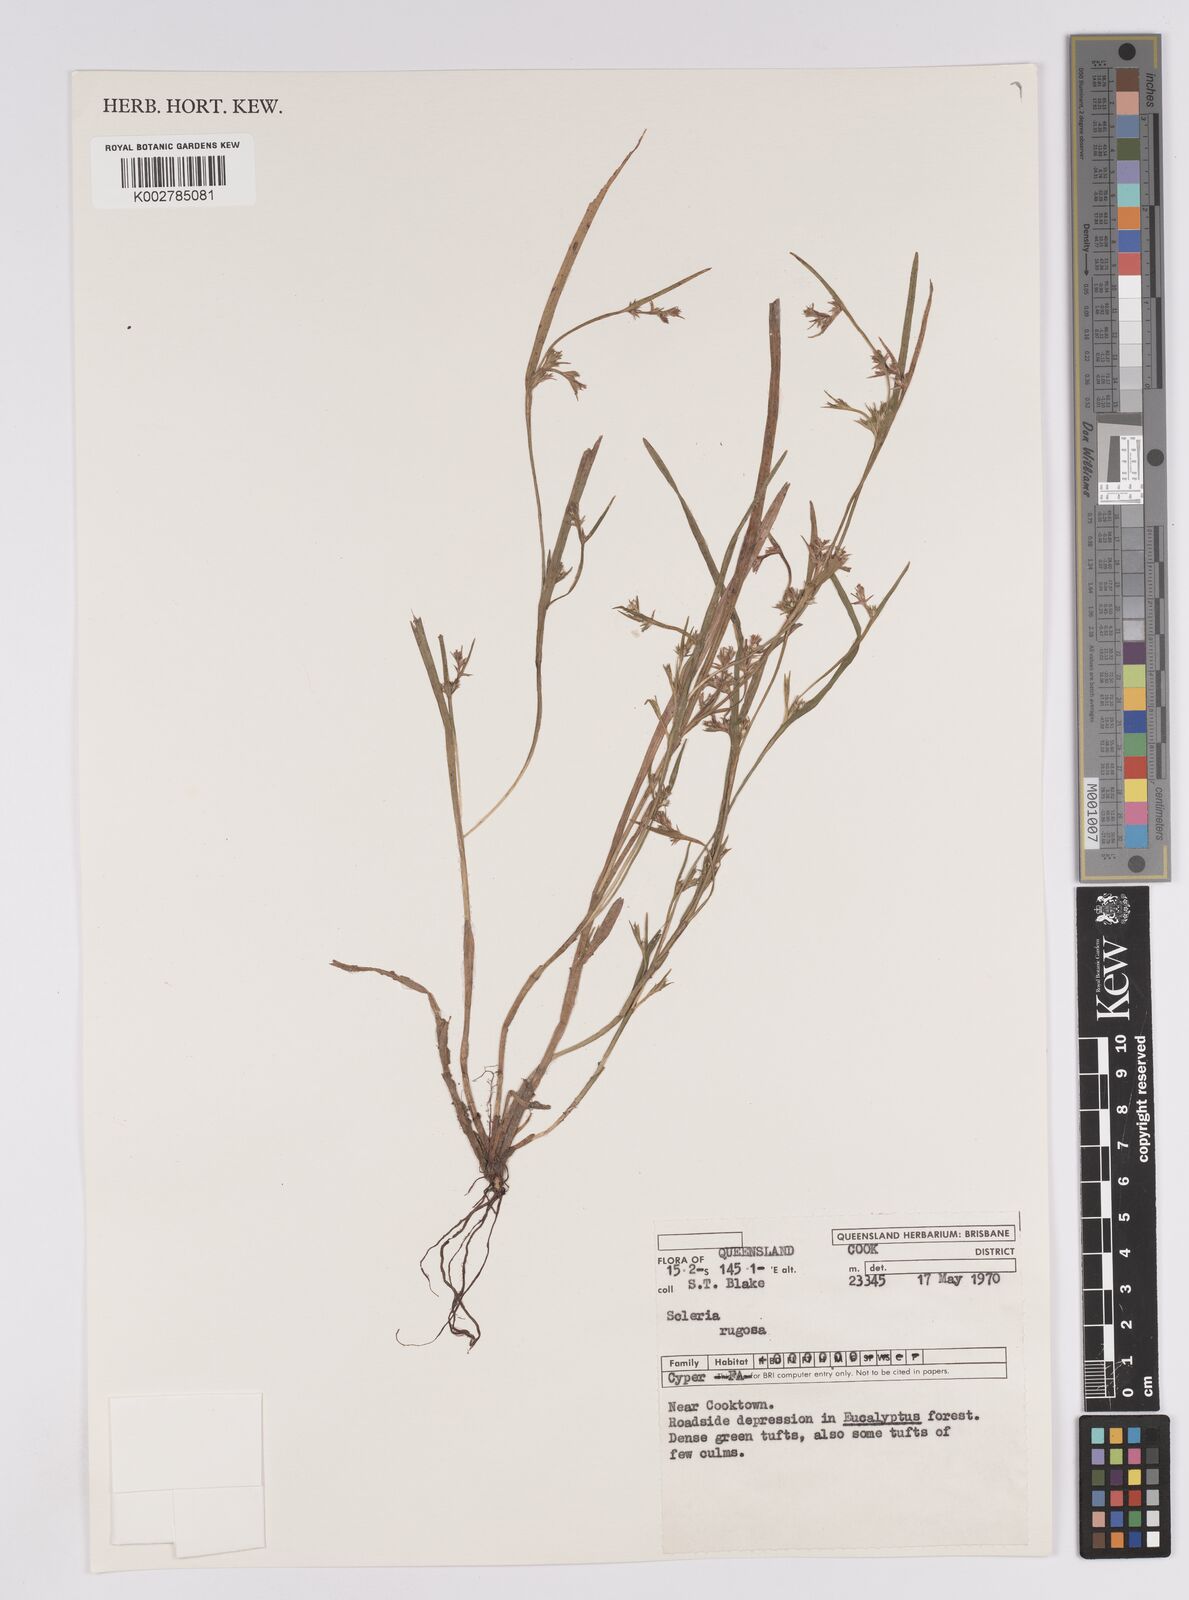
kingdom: Plantae
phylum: Tracheophyta
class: Liliopsida
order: Poales
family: Cyperaceae
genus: Scleria
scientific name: Scleria rugosa
